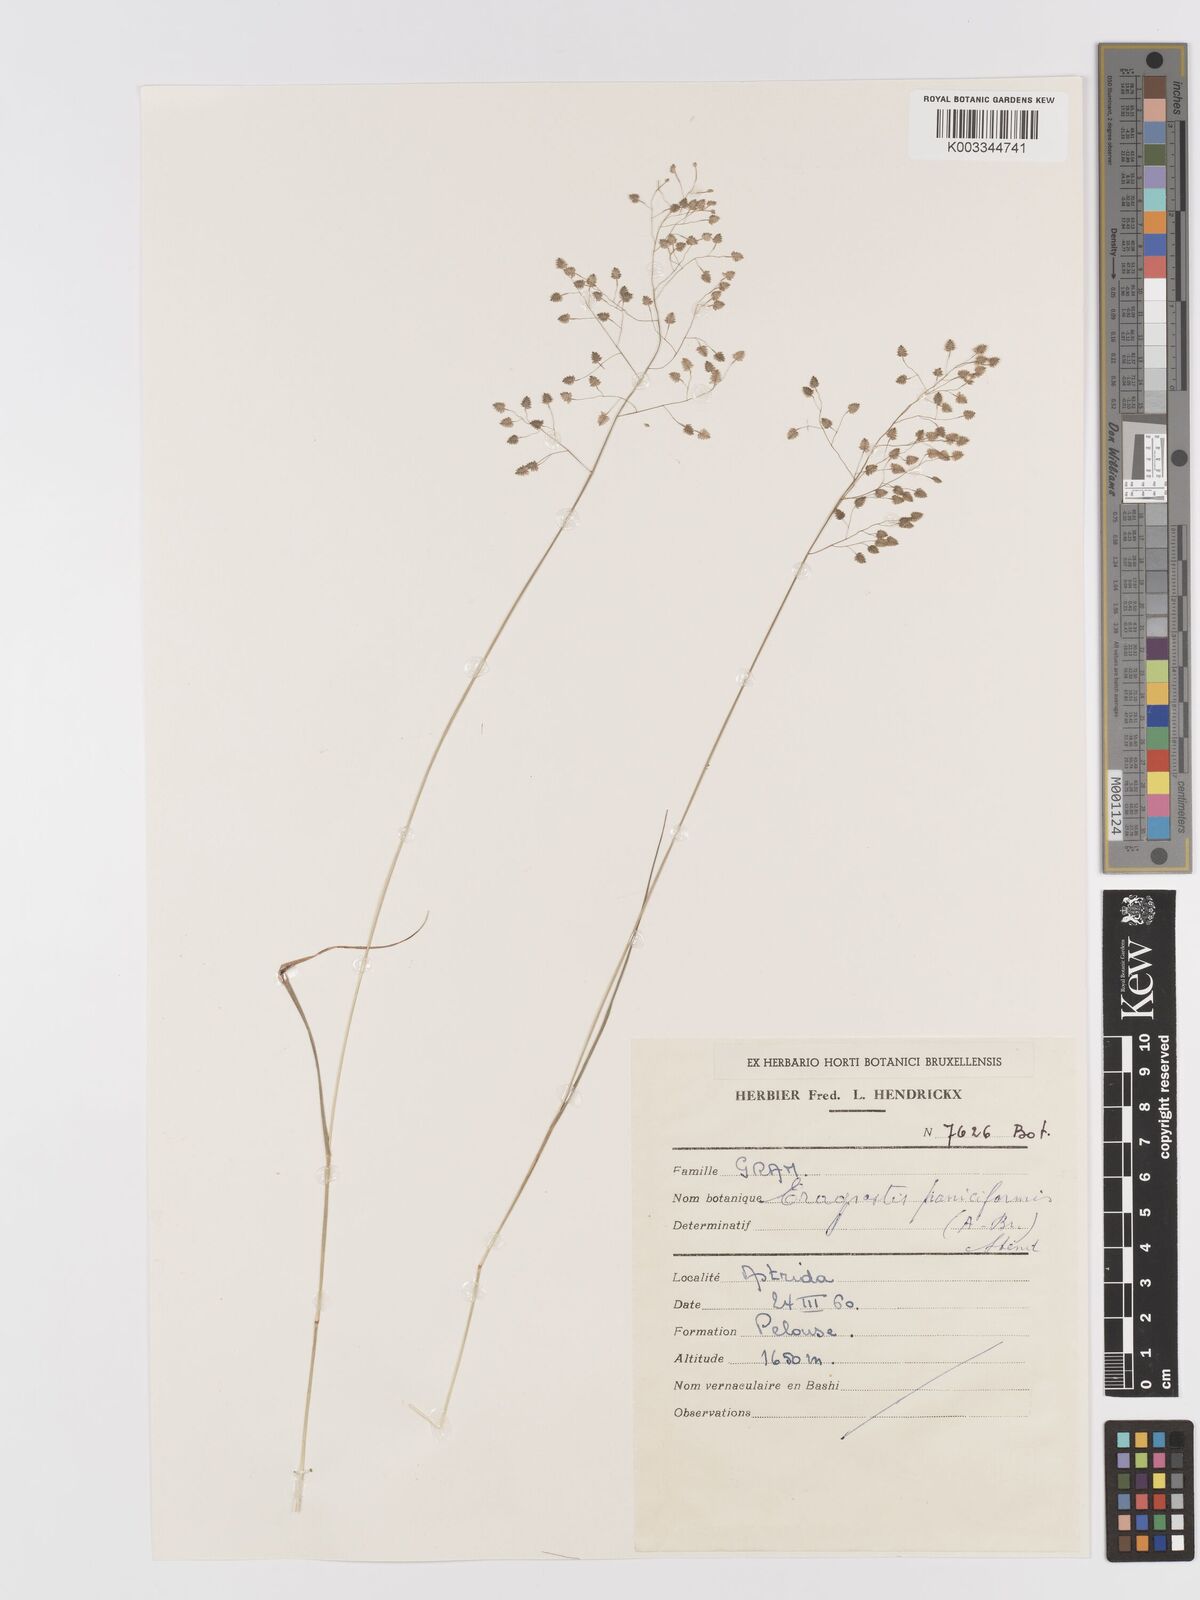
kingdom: Plantae
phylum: Tracheophyta
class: Liliopsida
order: Poales
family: Poaceae
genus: Eragrostis
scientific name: Eragrostis exasperata
